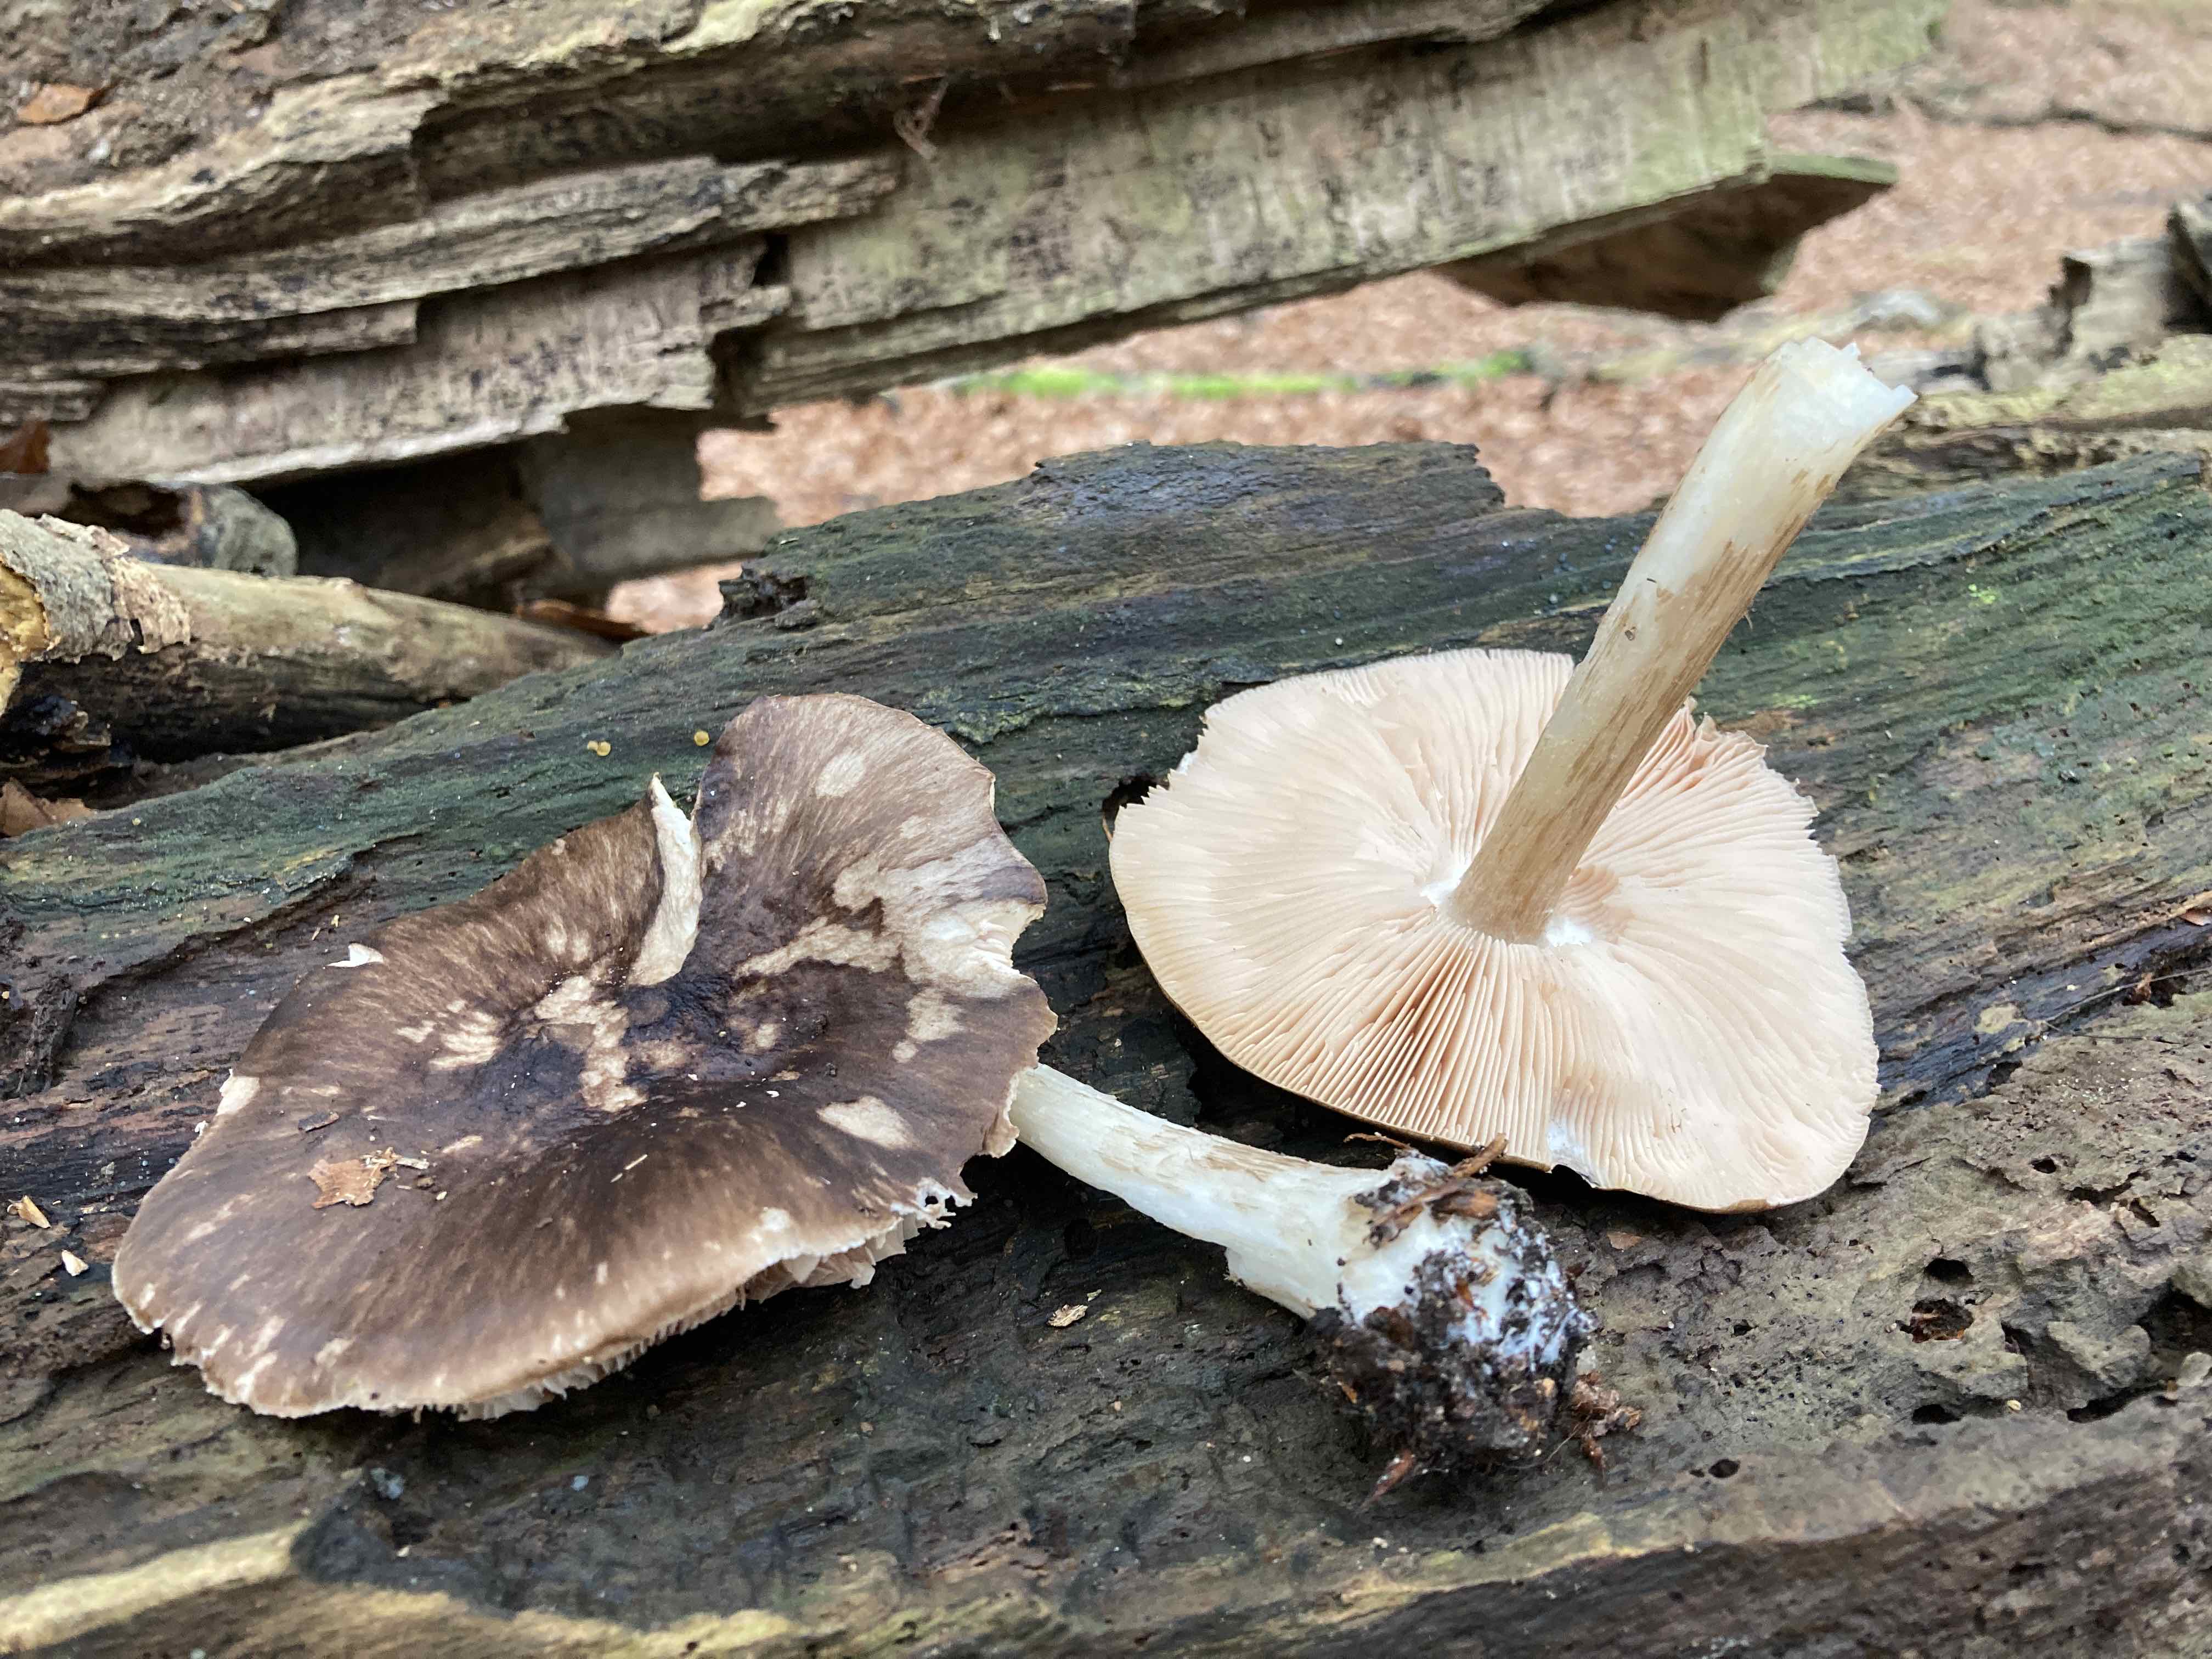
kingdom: Fungi
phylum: Basidiomycota
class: Agaricomycetes
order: Agaricales
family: Pluteaceae
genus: Pluteus
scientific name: Pluteus cervinus
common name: sodfarvet skærmhat
